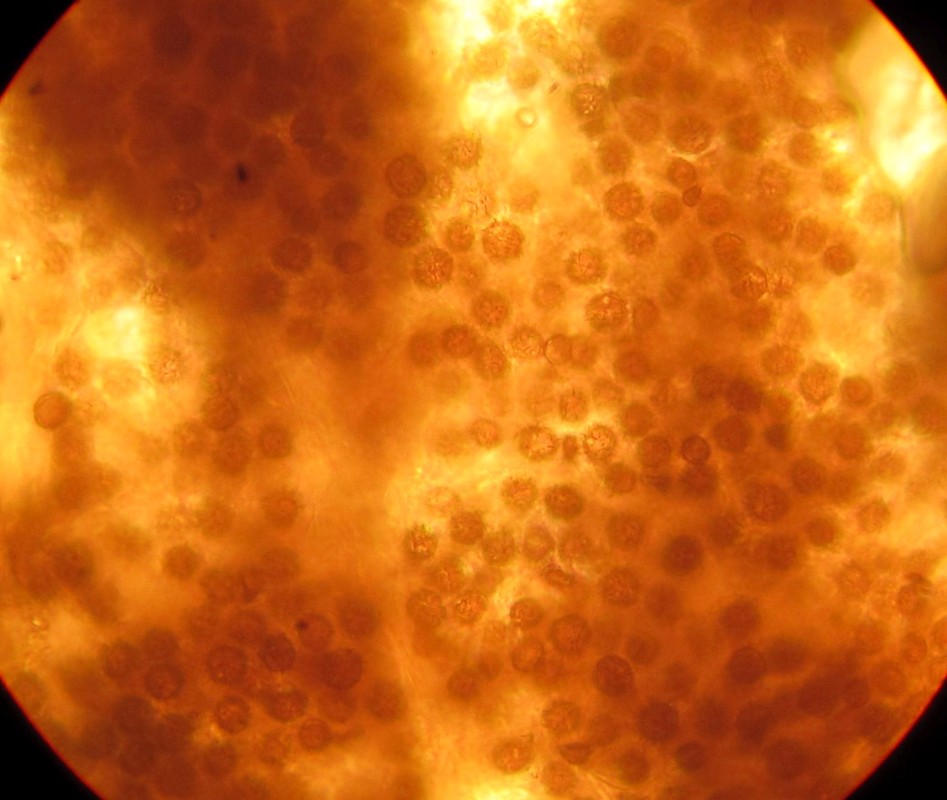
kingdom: Fungi
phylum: Basidiomycota
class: Agaricomycetes
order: Boletales
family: Sclerodermataceae
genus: Scleroderma
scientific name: Scleroderma bovista
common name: bovist-bruskbold
